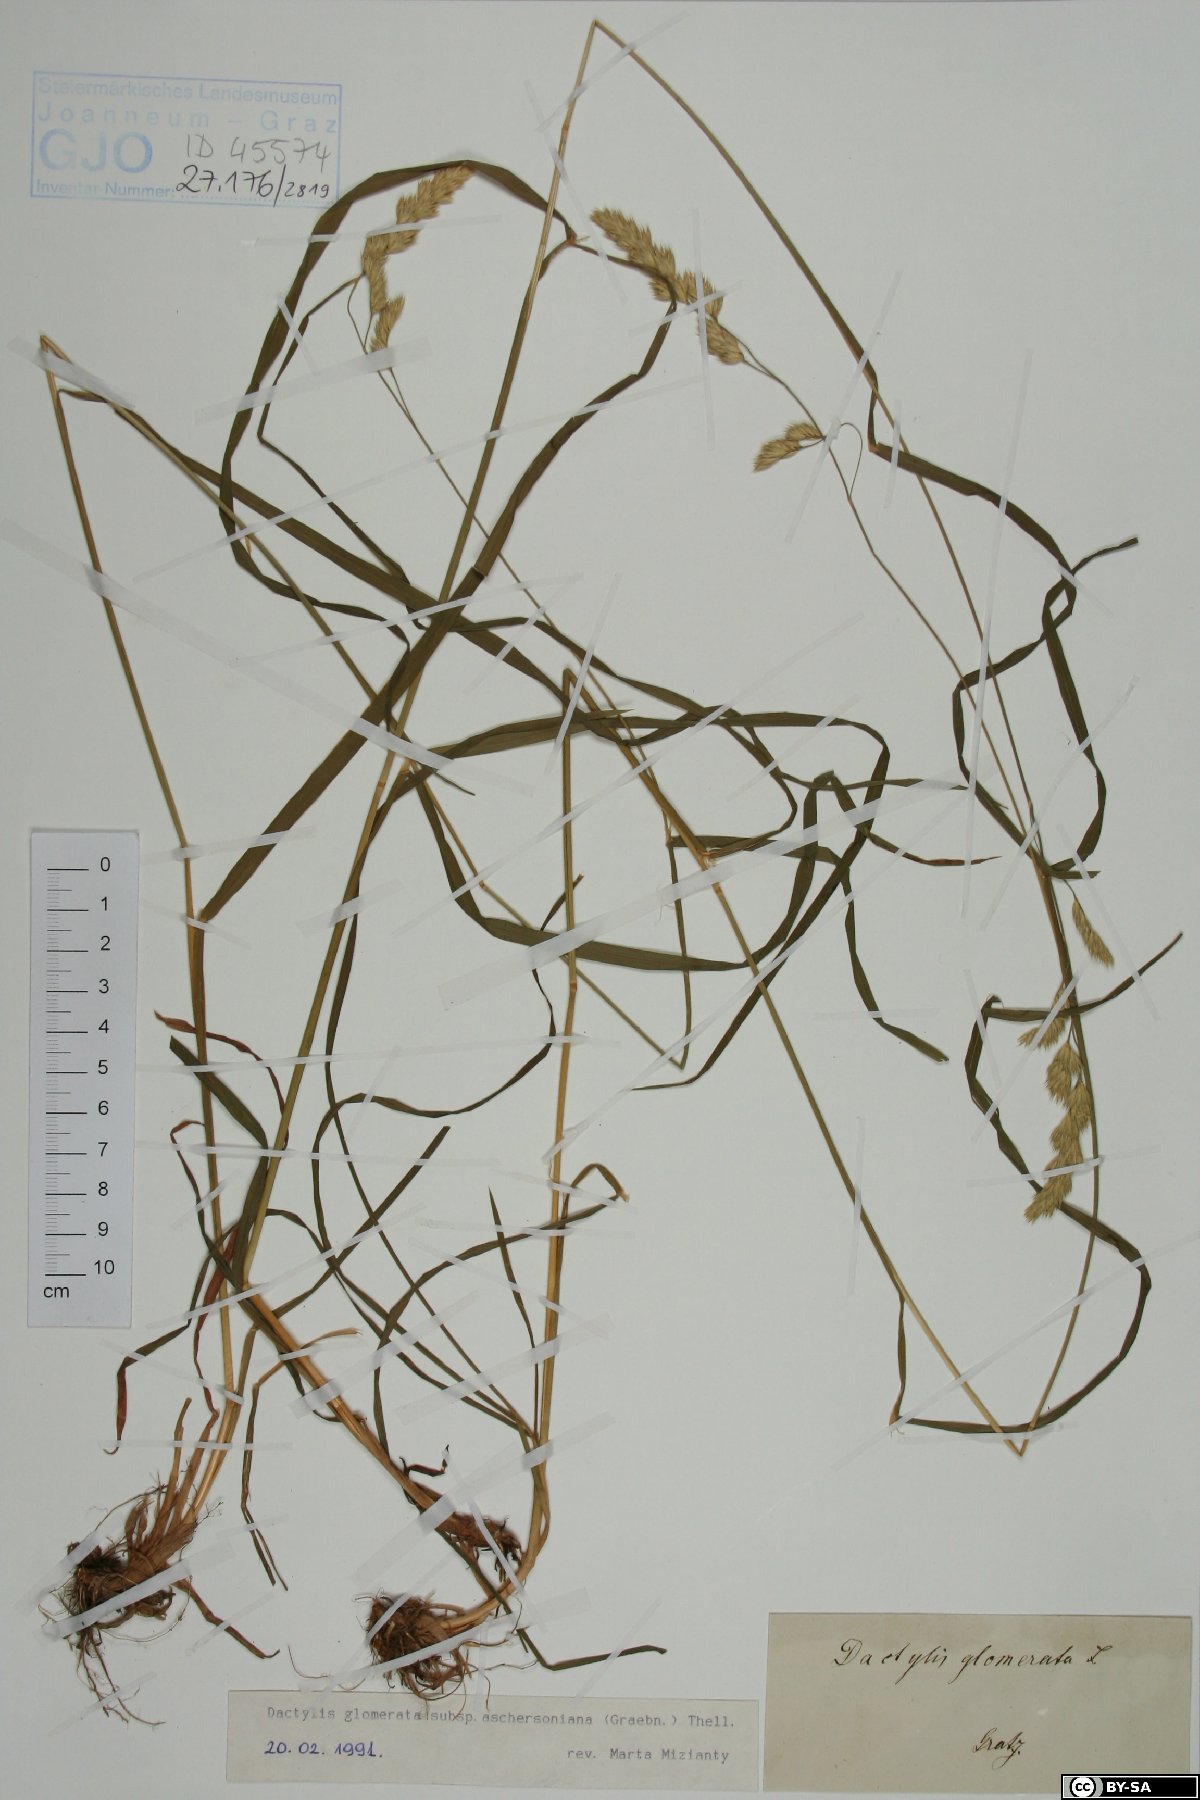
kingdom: Plantae
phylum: Tracheophyta
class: Liliopsida
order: Poales
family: Poaceae
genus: Dactylis
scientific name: Dactylis glomerata
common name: Orchardgrass
